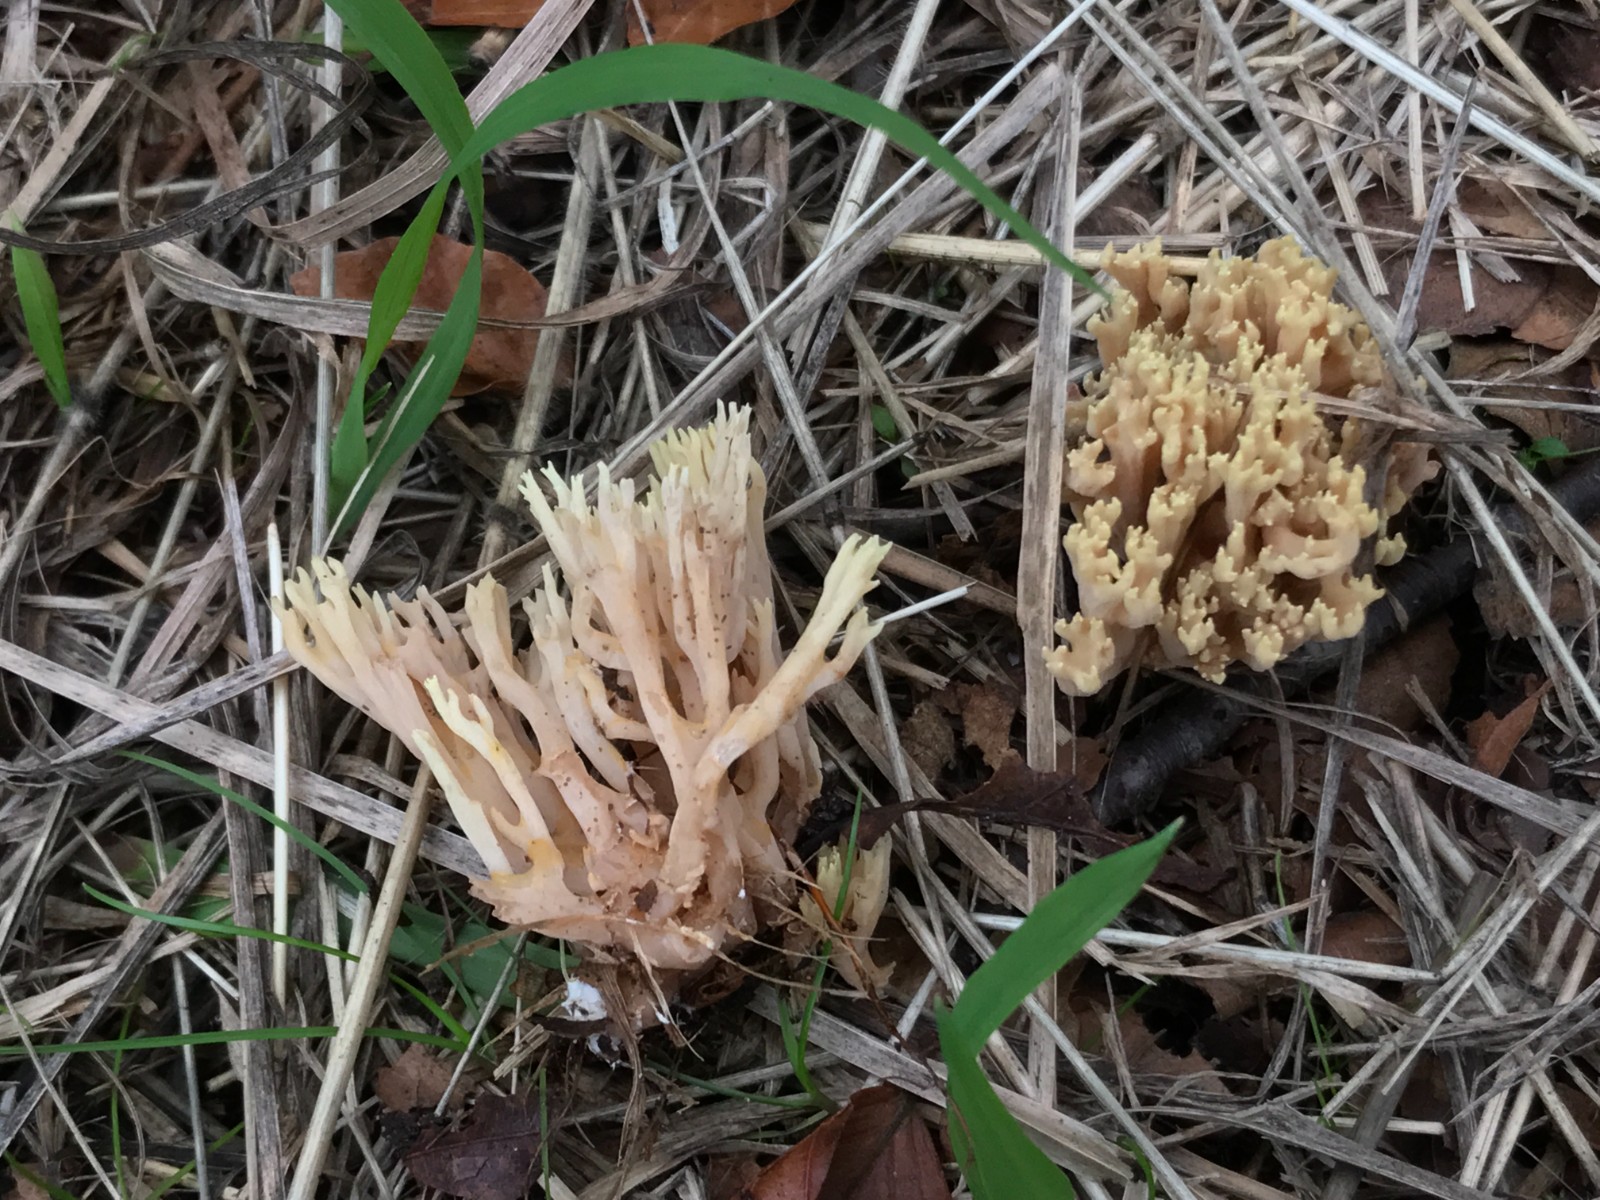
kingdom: Fungi
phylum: Basidiomycota
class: Agaricomycetes
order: Gomphales
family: Gomphaceae
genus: Ramaria
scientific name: Ramaria stricta
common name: rank koralsvamp
